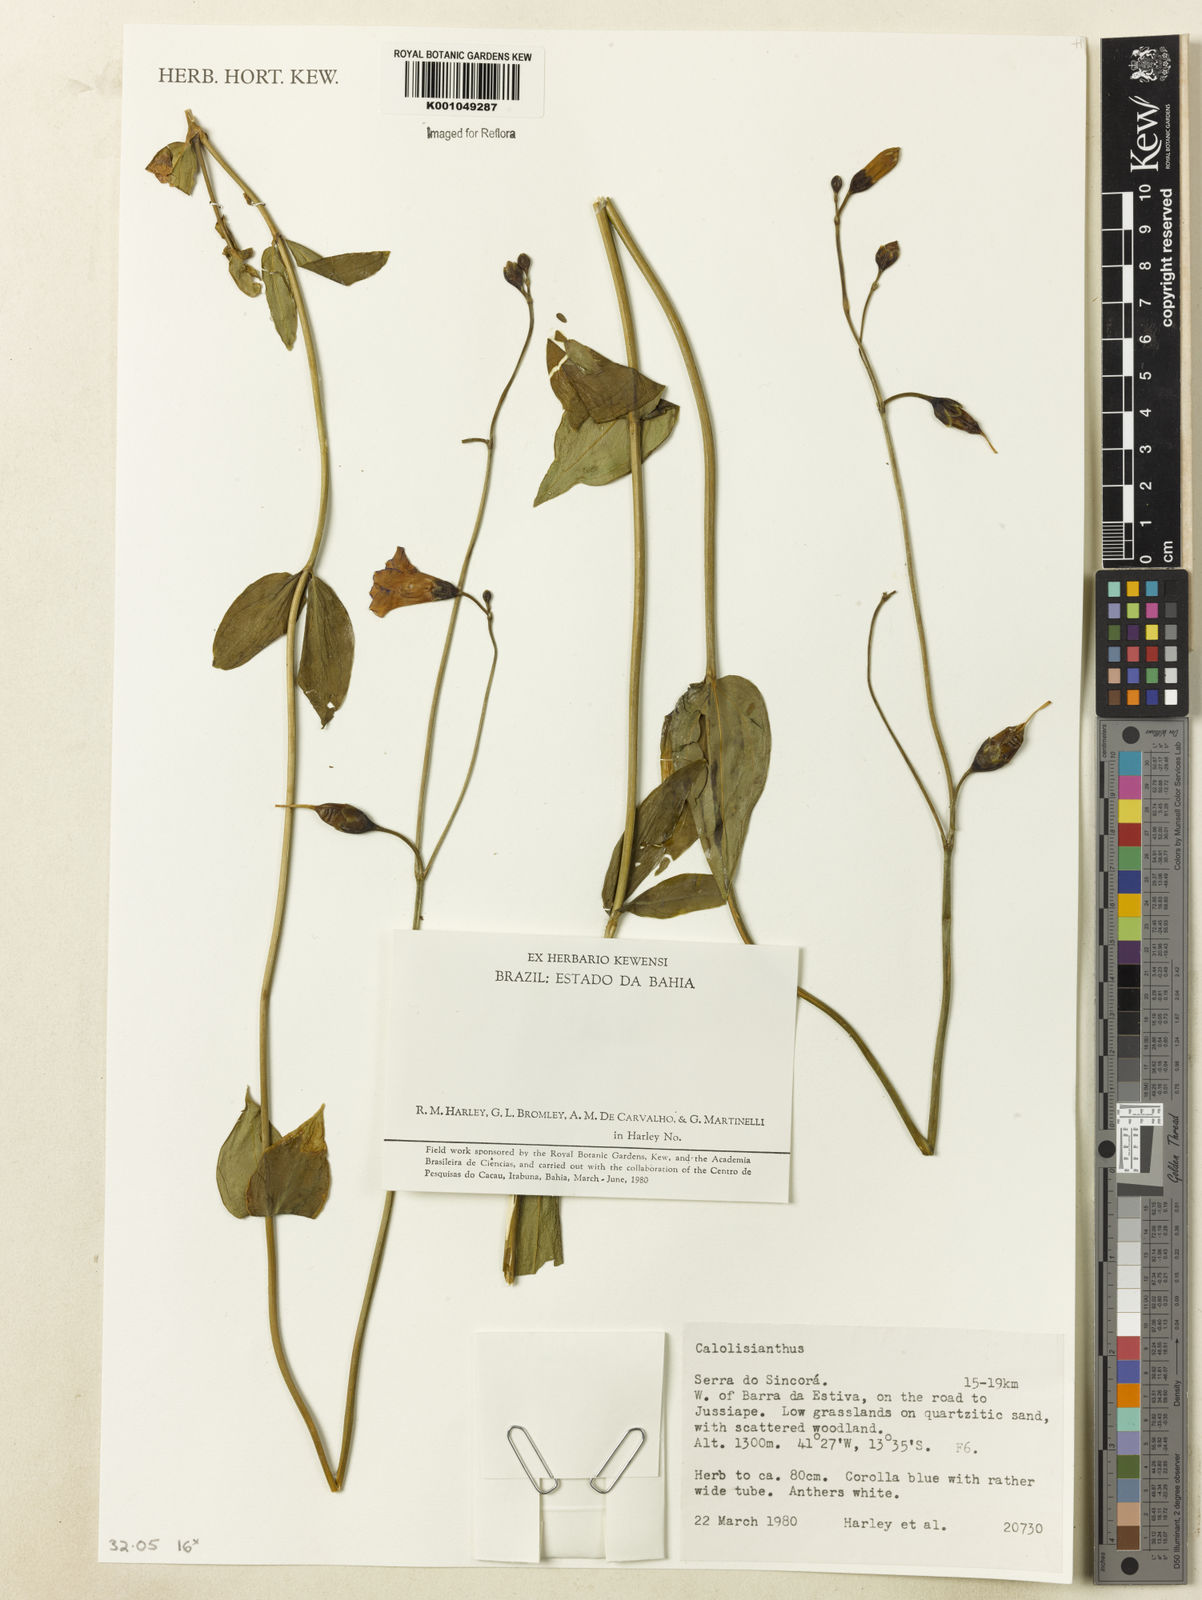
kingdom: Plantae
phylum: Tracheophyta
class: Magnoliopsida
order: Gentianales
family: Gentianaceae
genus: Calolisianthus
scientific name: Calolisianthus
